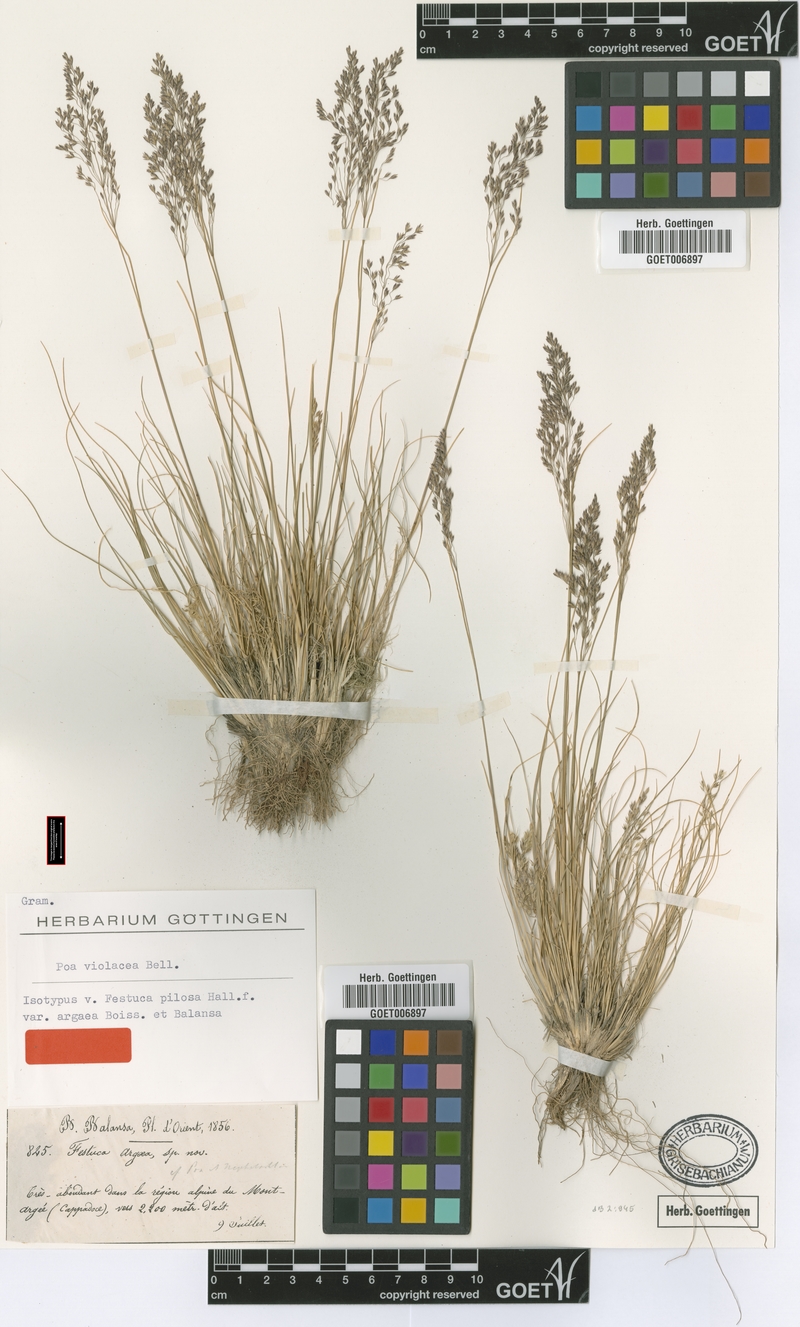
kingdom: Plantae
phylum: Tracheophyta
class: Liliopsida
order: Poales
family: Poaceae
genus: Bellardiochloa
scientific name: Bellardiochloa variegata
